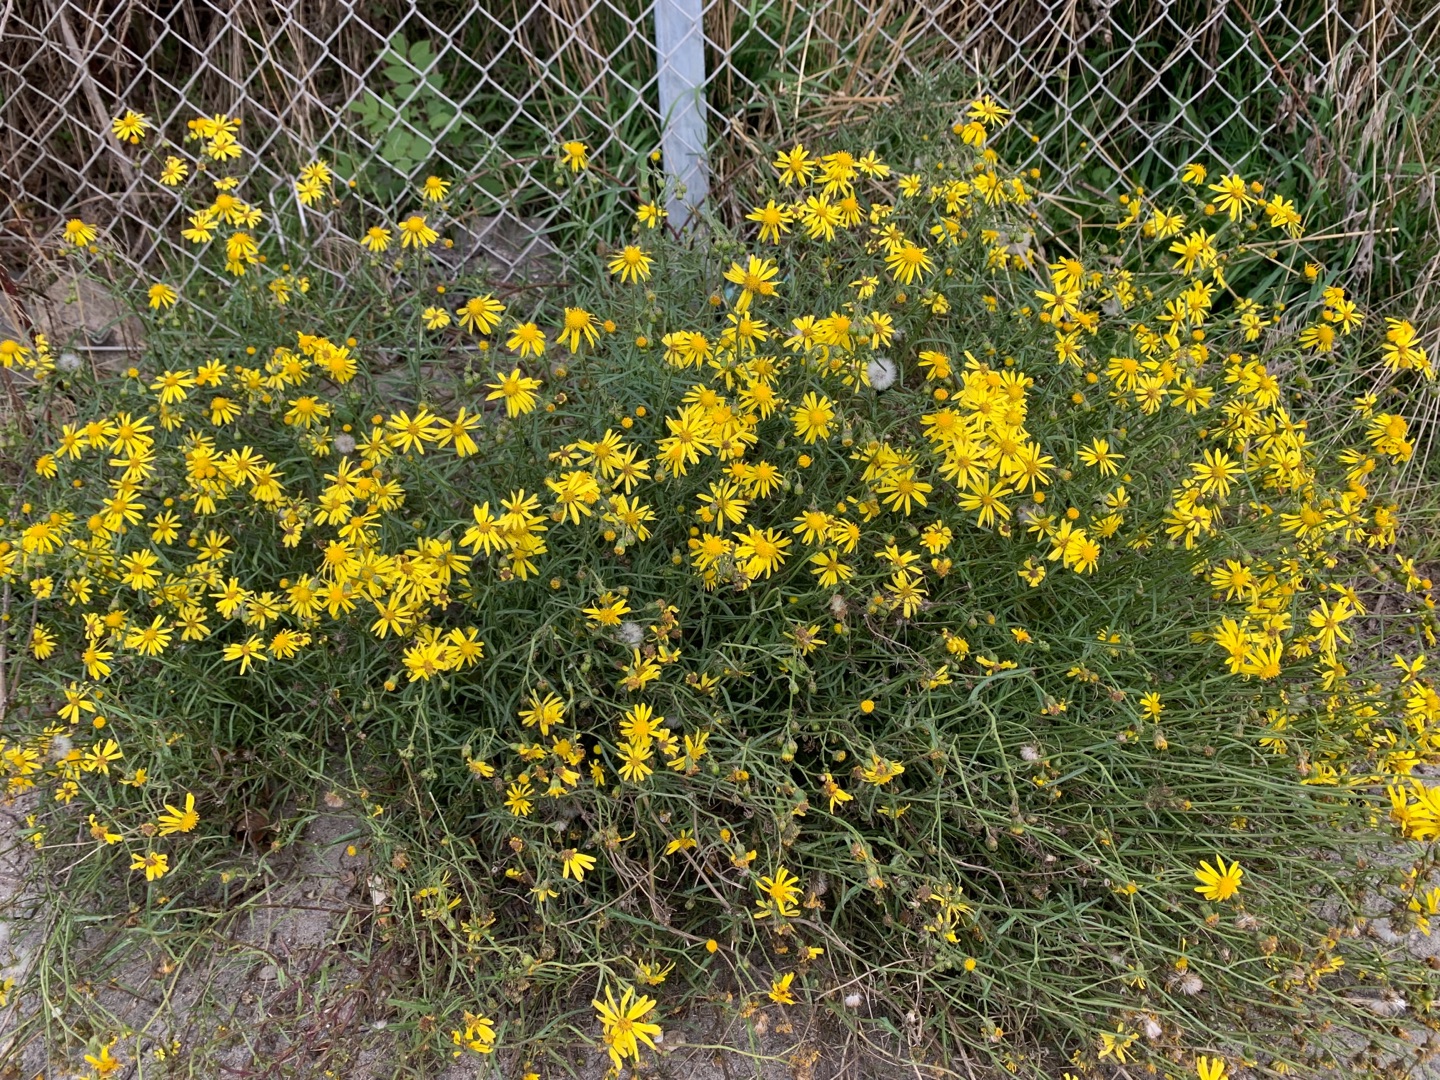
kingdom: Plantae
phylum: Tracheophyta
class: Magnoliopsida
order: Asterales
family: Asteraceae
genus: Senecio
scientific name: Senecio inaequidens
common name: Smalbladet brandbæger
